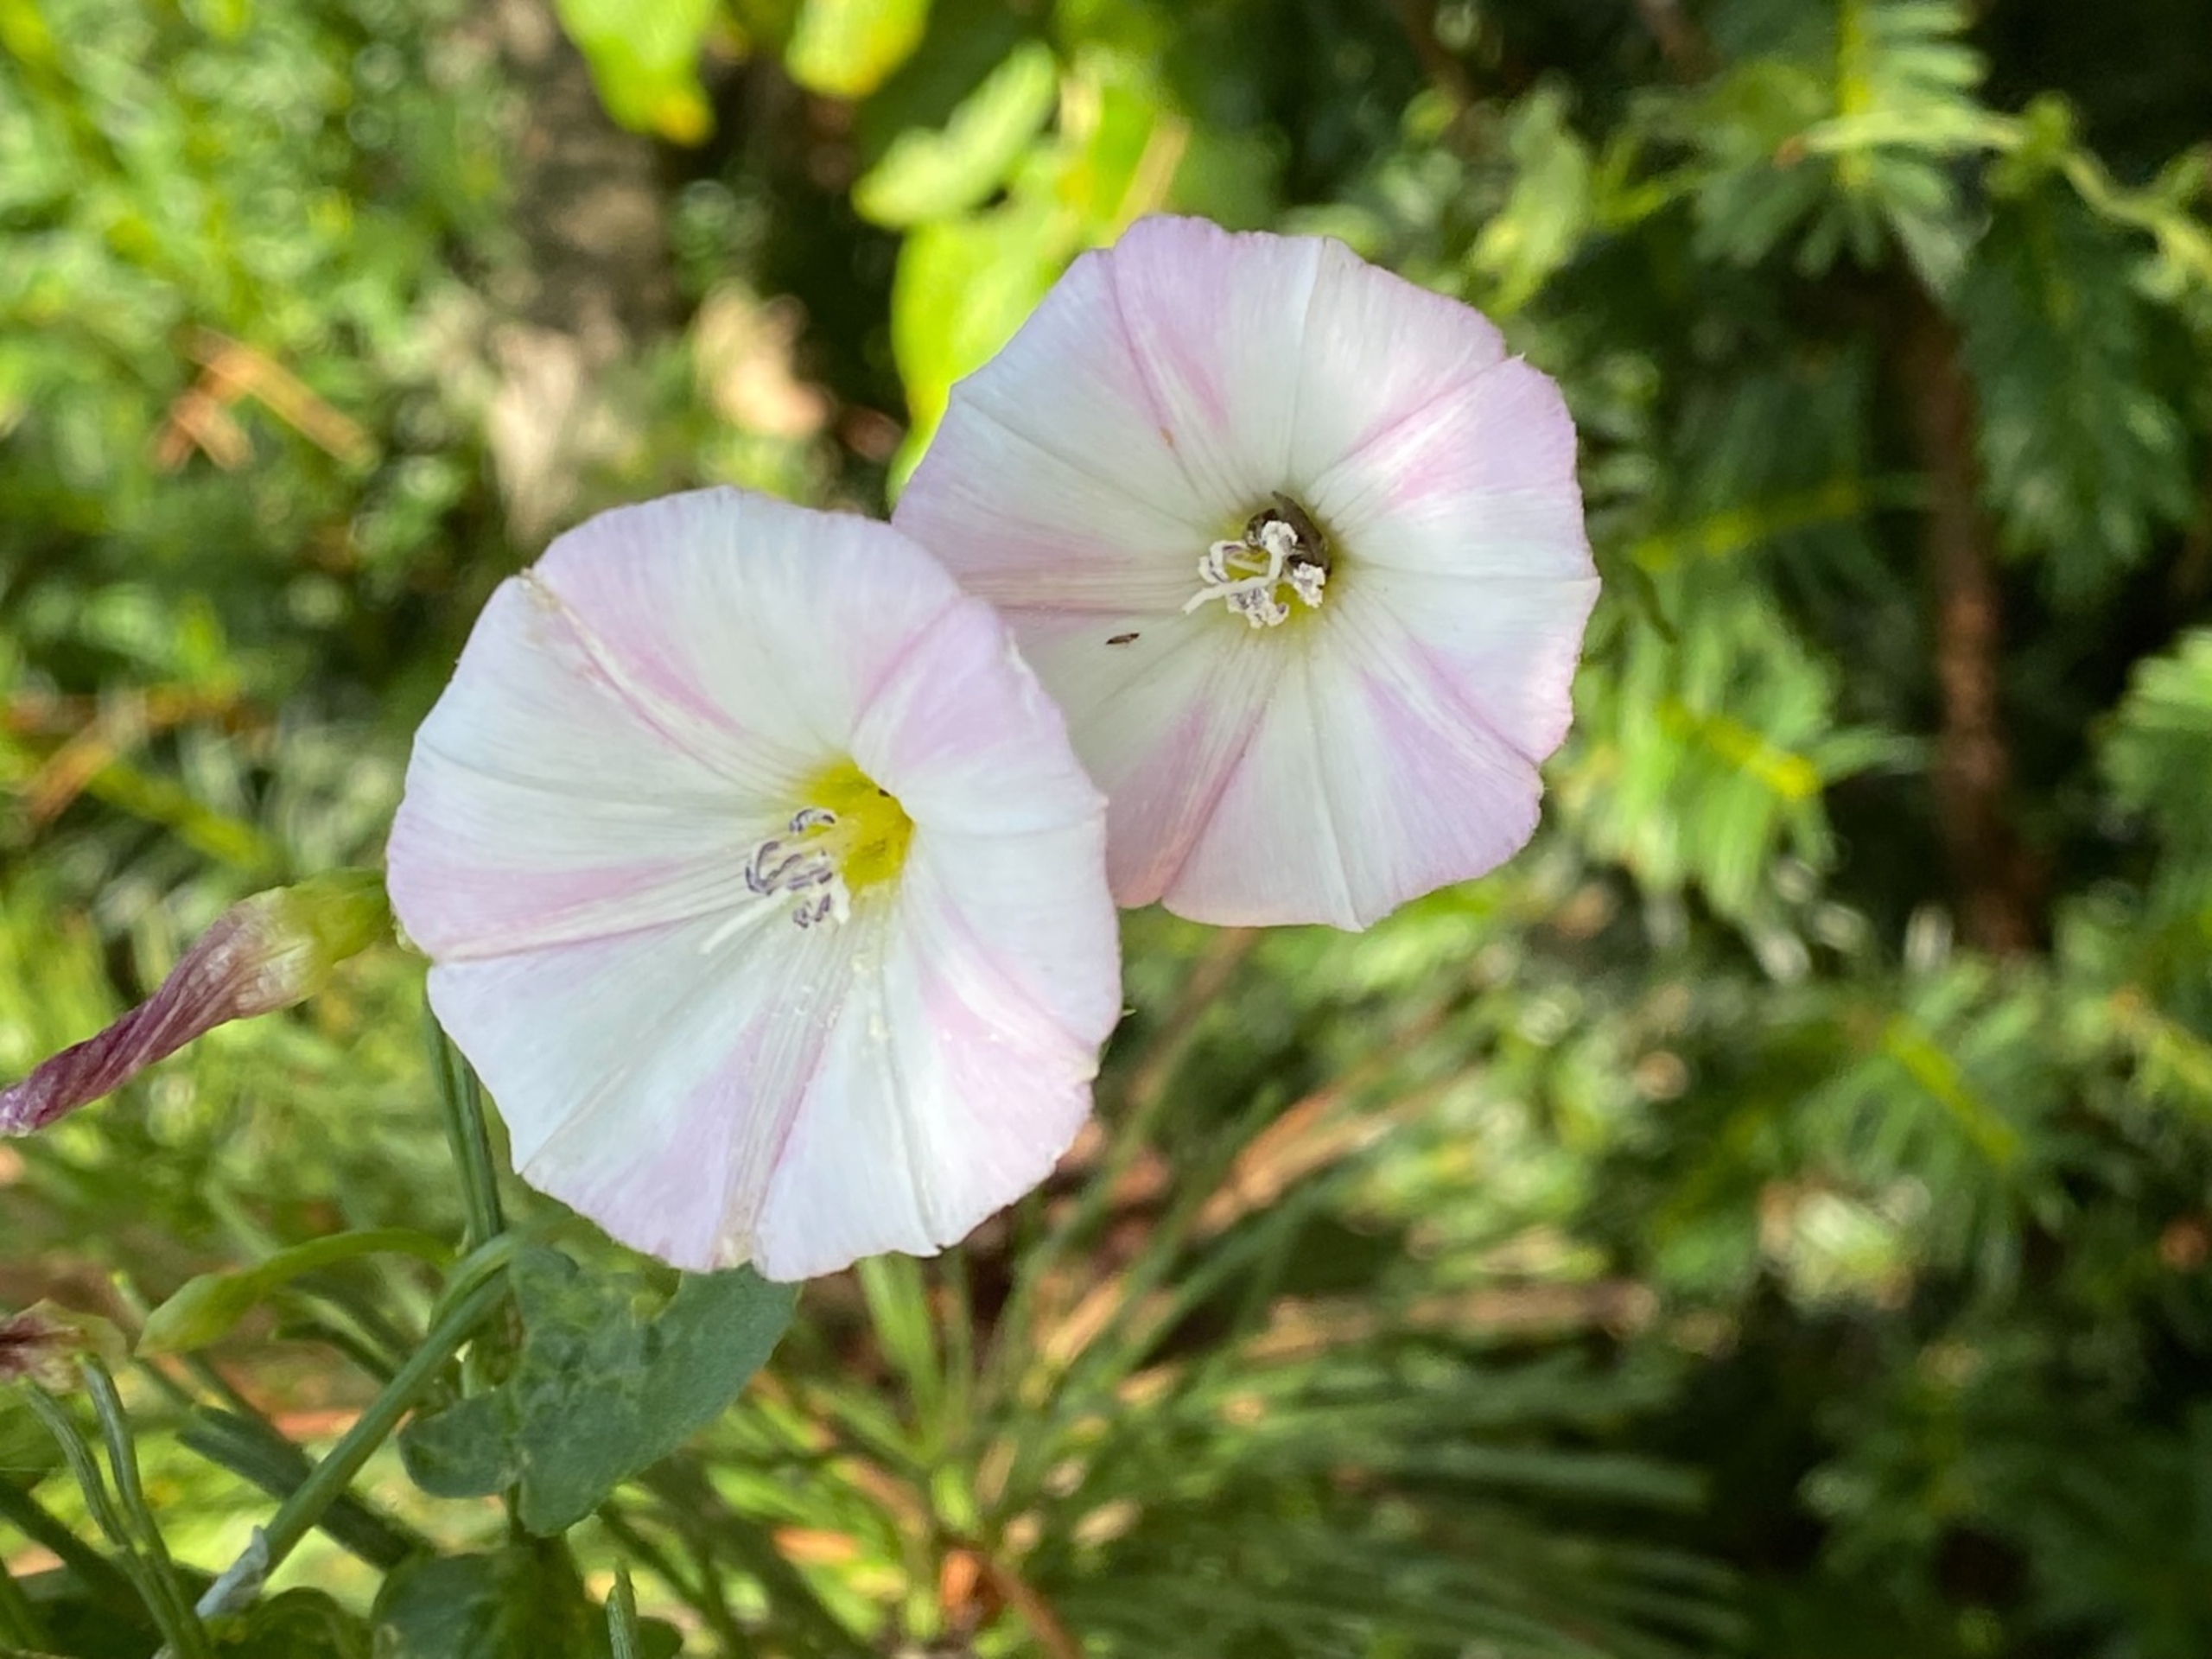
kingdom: Plantae
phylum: Tracheophyta
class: Magnoliopsida
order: Solanales
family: Convolvulaceae
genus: Convolvulus
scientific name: Convolvulus arvensis
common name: Ager-snerle
